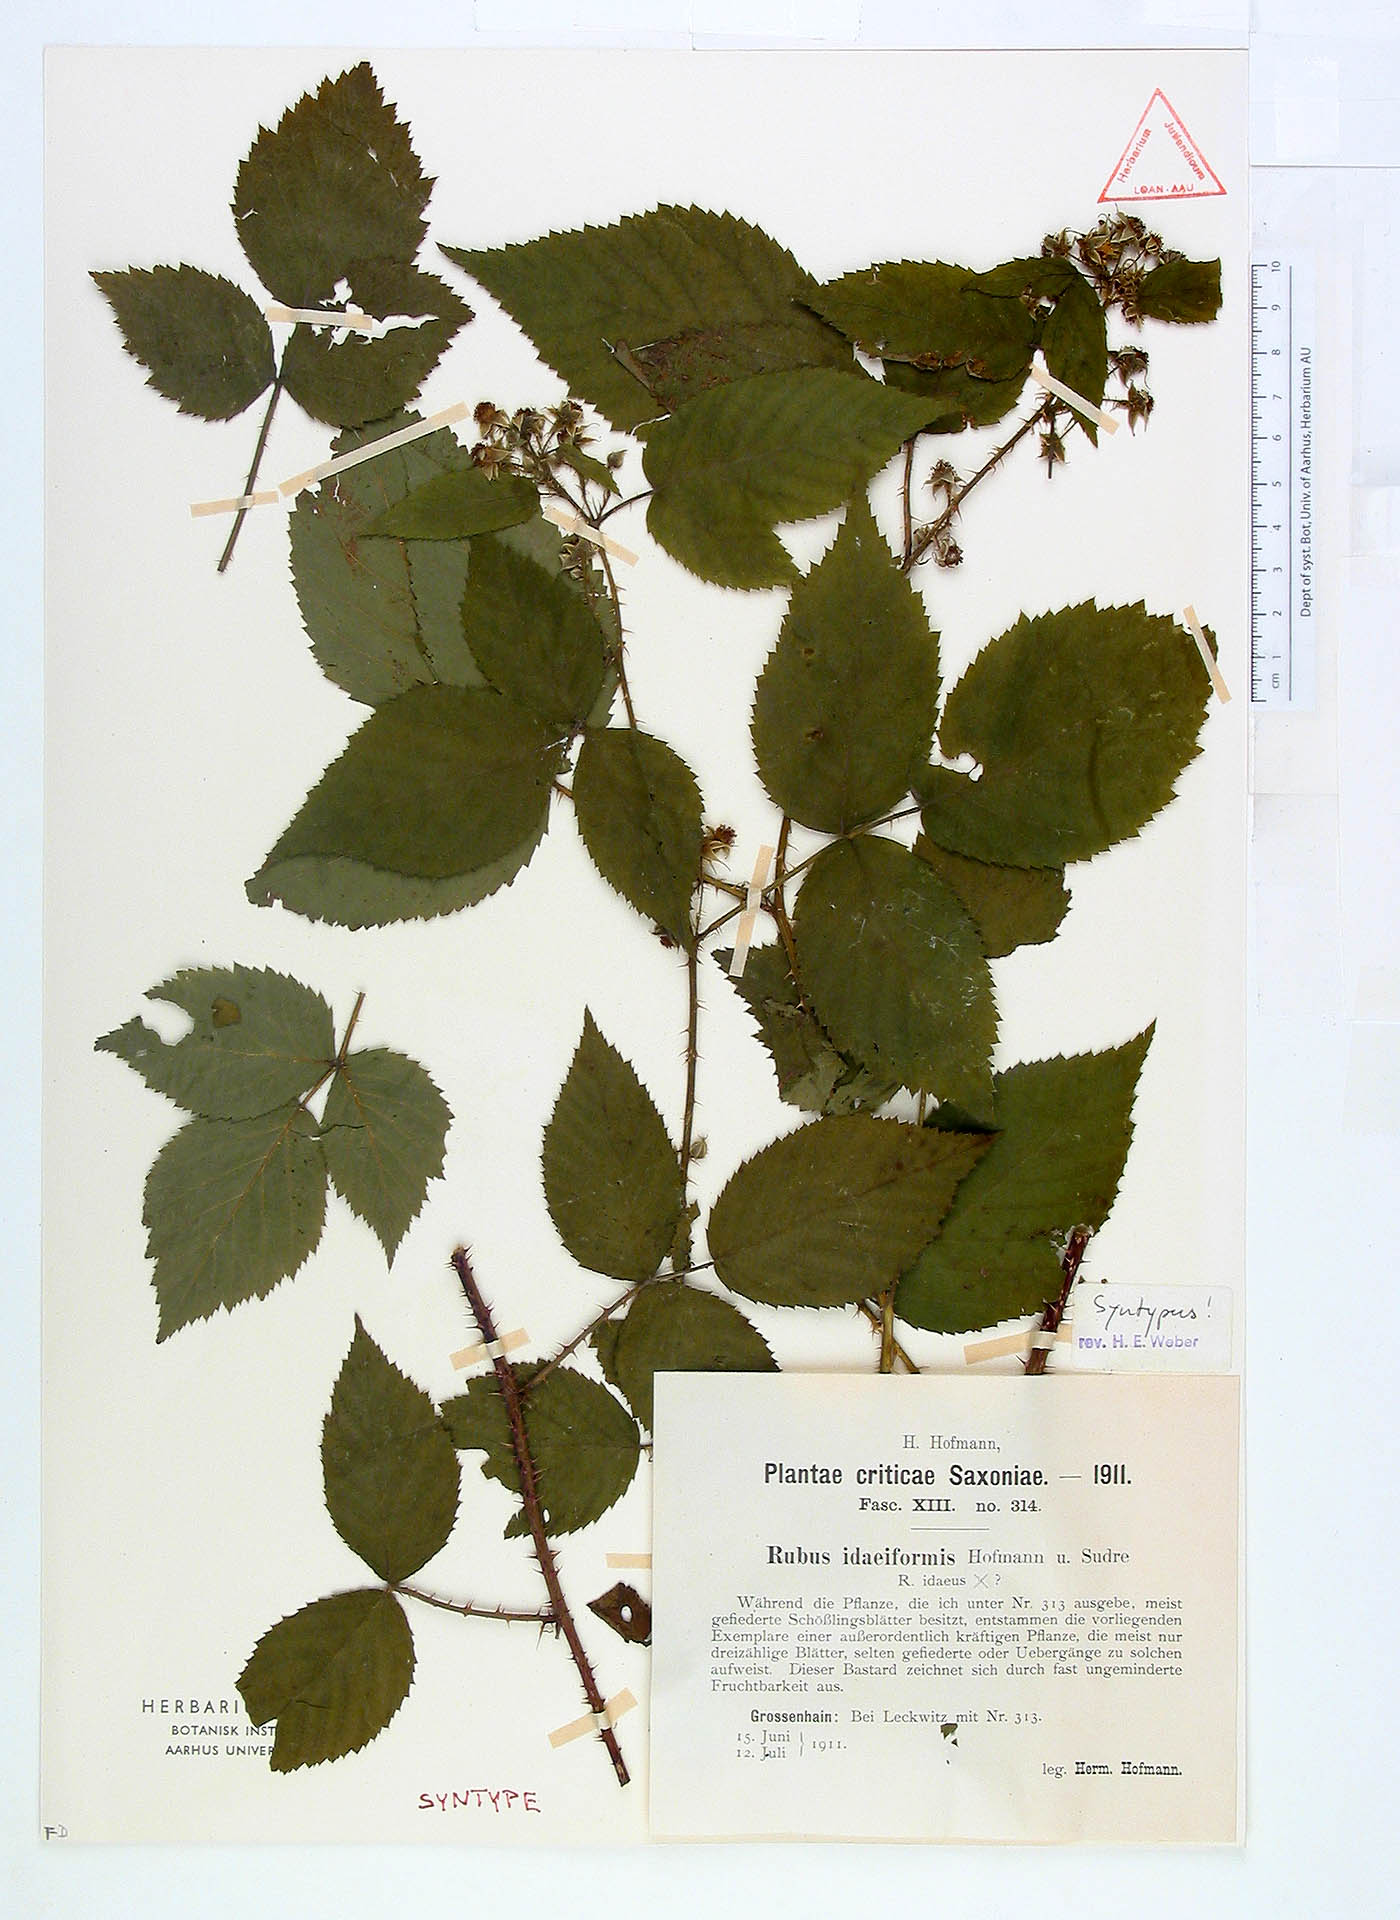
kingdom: Plantae
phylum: Tracheophyta
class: Magnoliopsida
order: Rosales
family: Rosaceae
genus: Rubus
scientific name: Rubus idaeiformis
